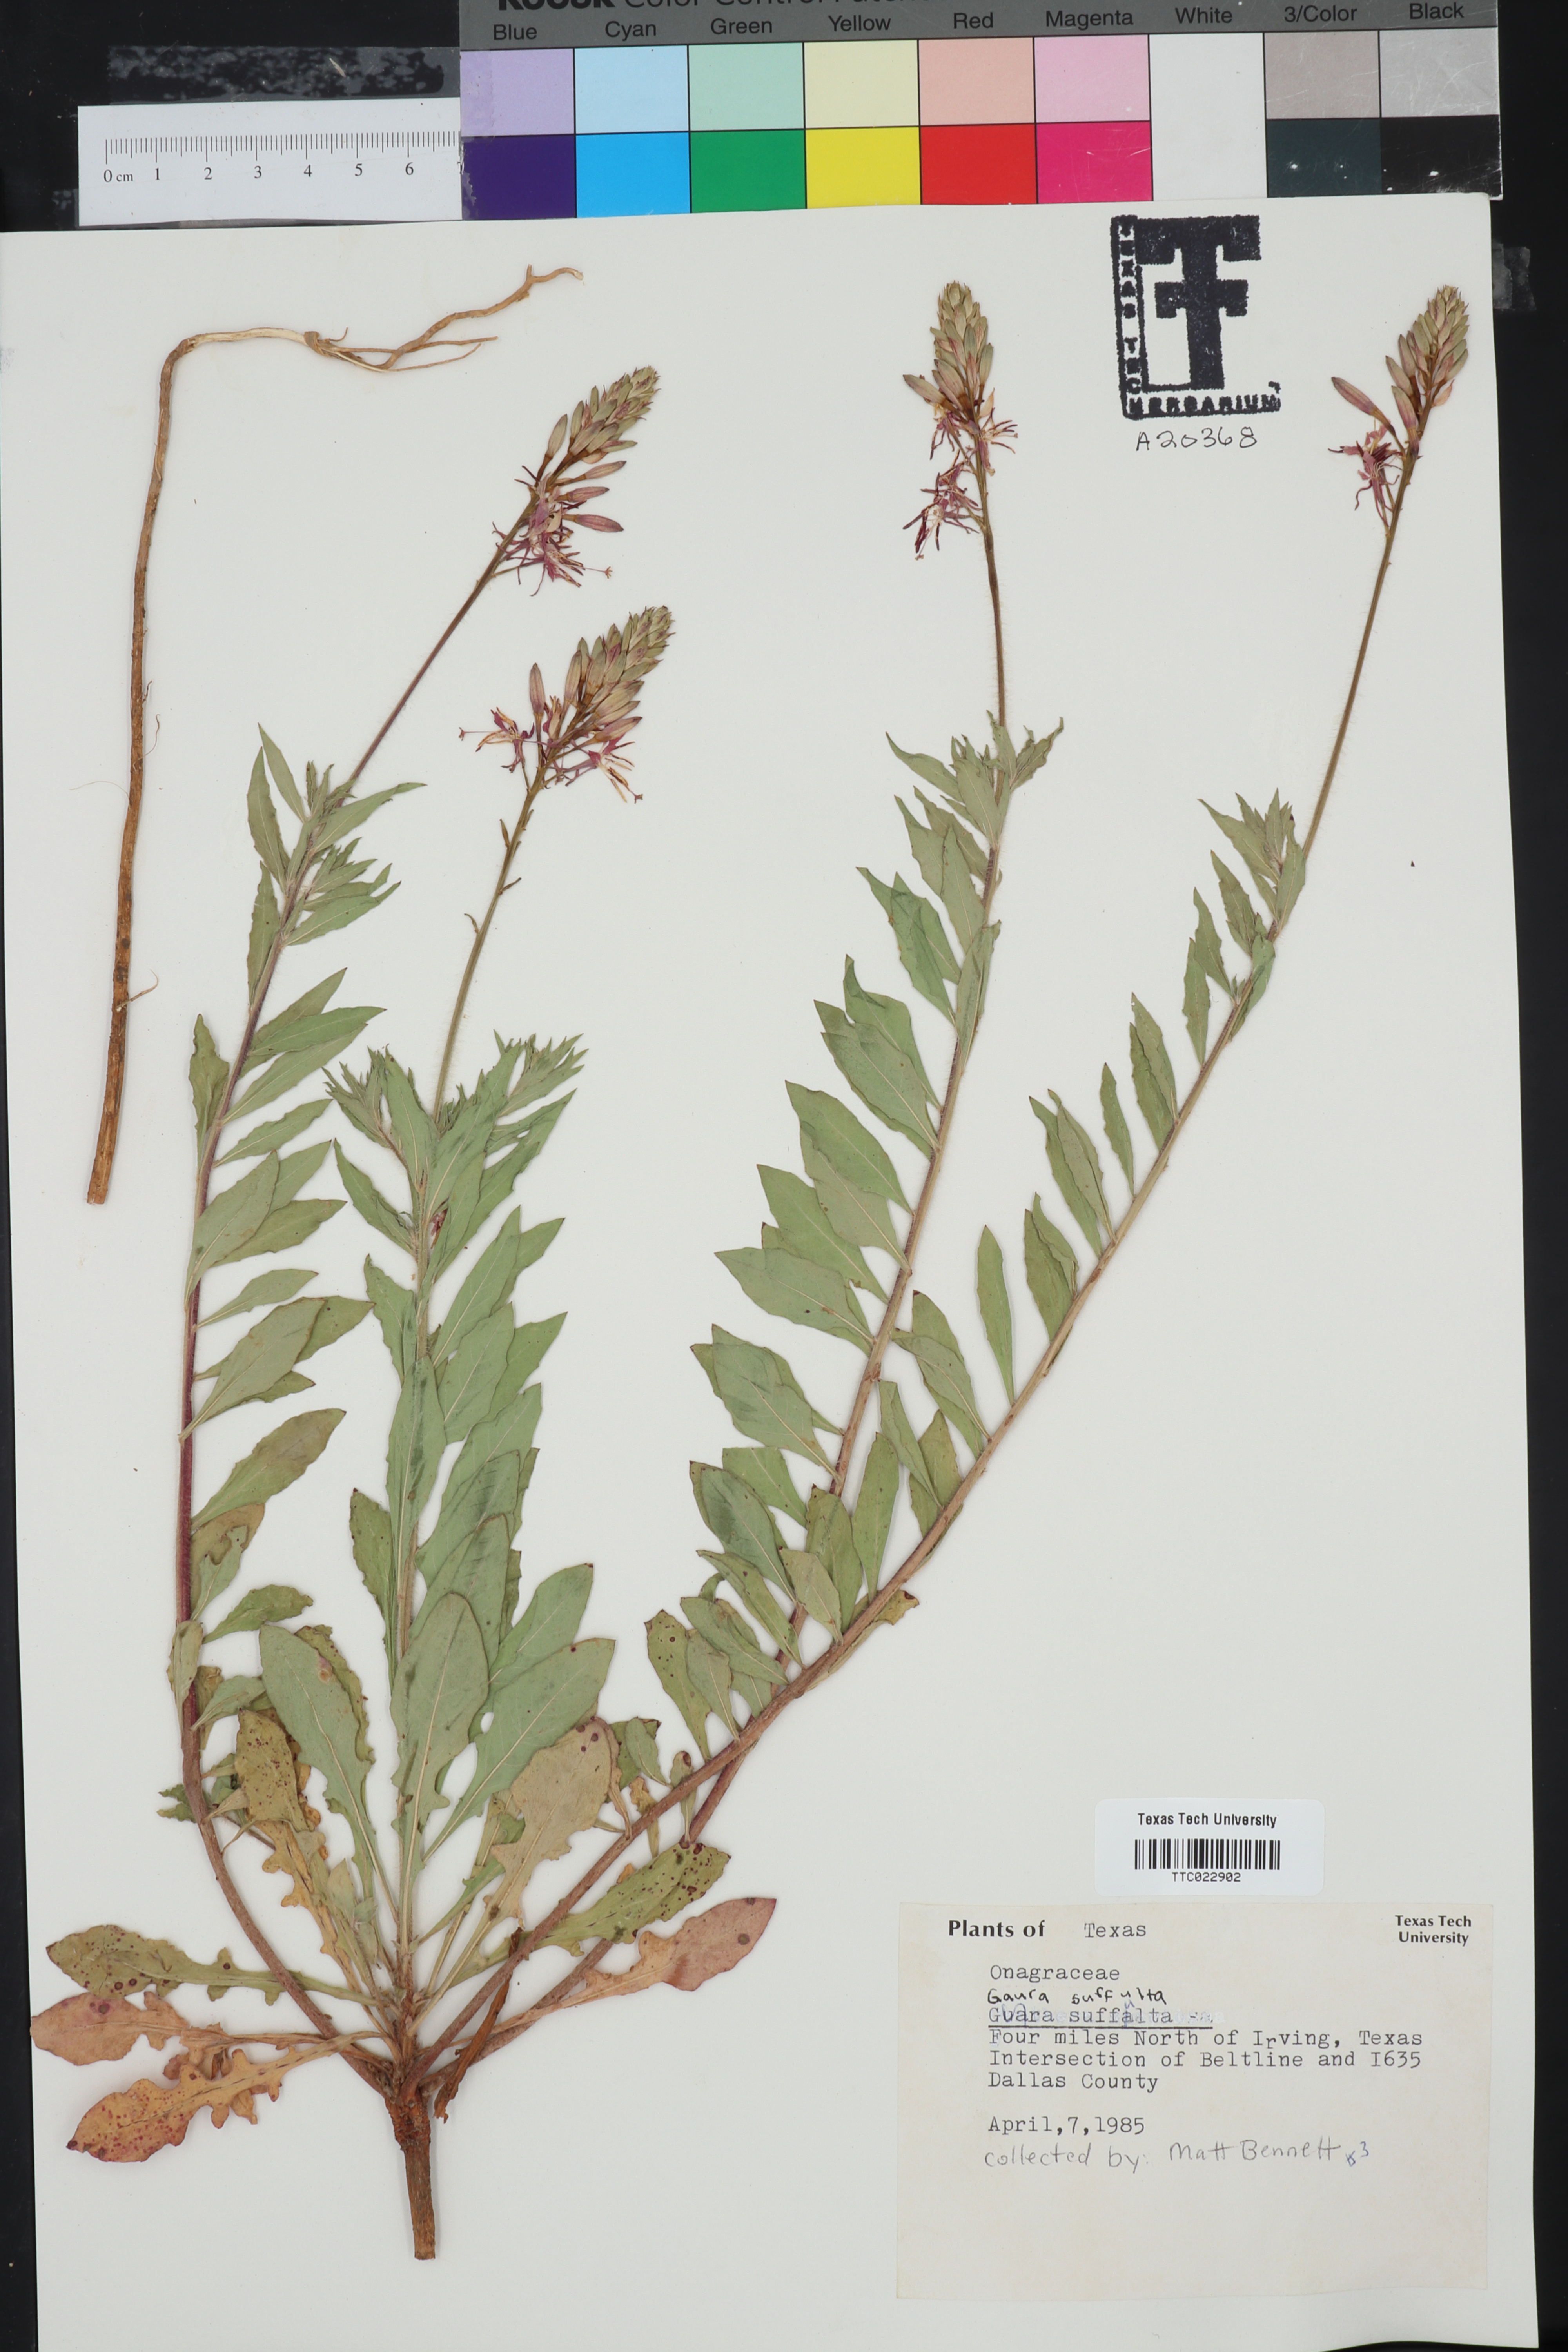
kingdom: Plantae
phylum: Tracheophyta
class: Magnoliopsida
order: Myrtales
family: Onagraceae
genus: Oenothera
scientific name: Oenothera Gaura suffulta
